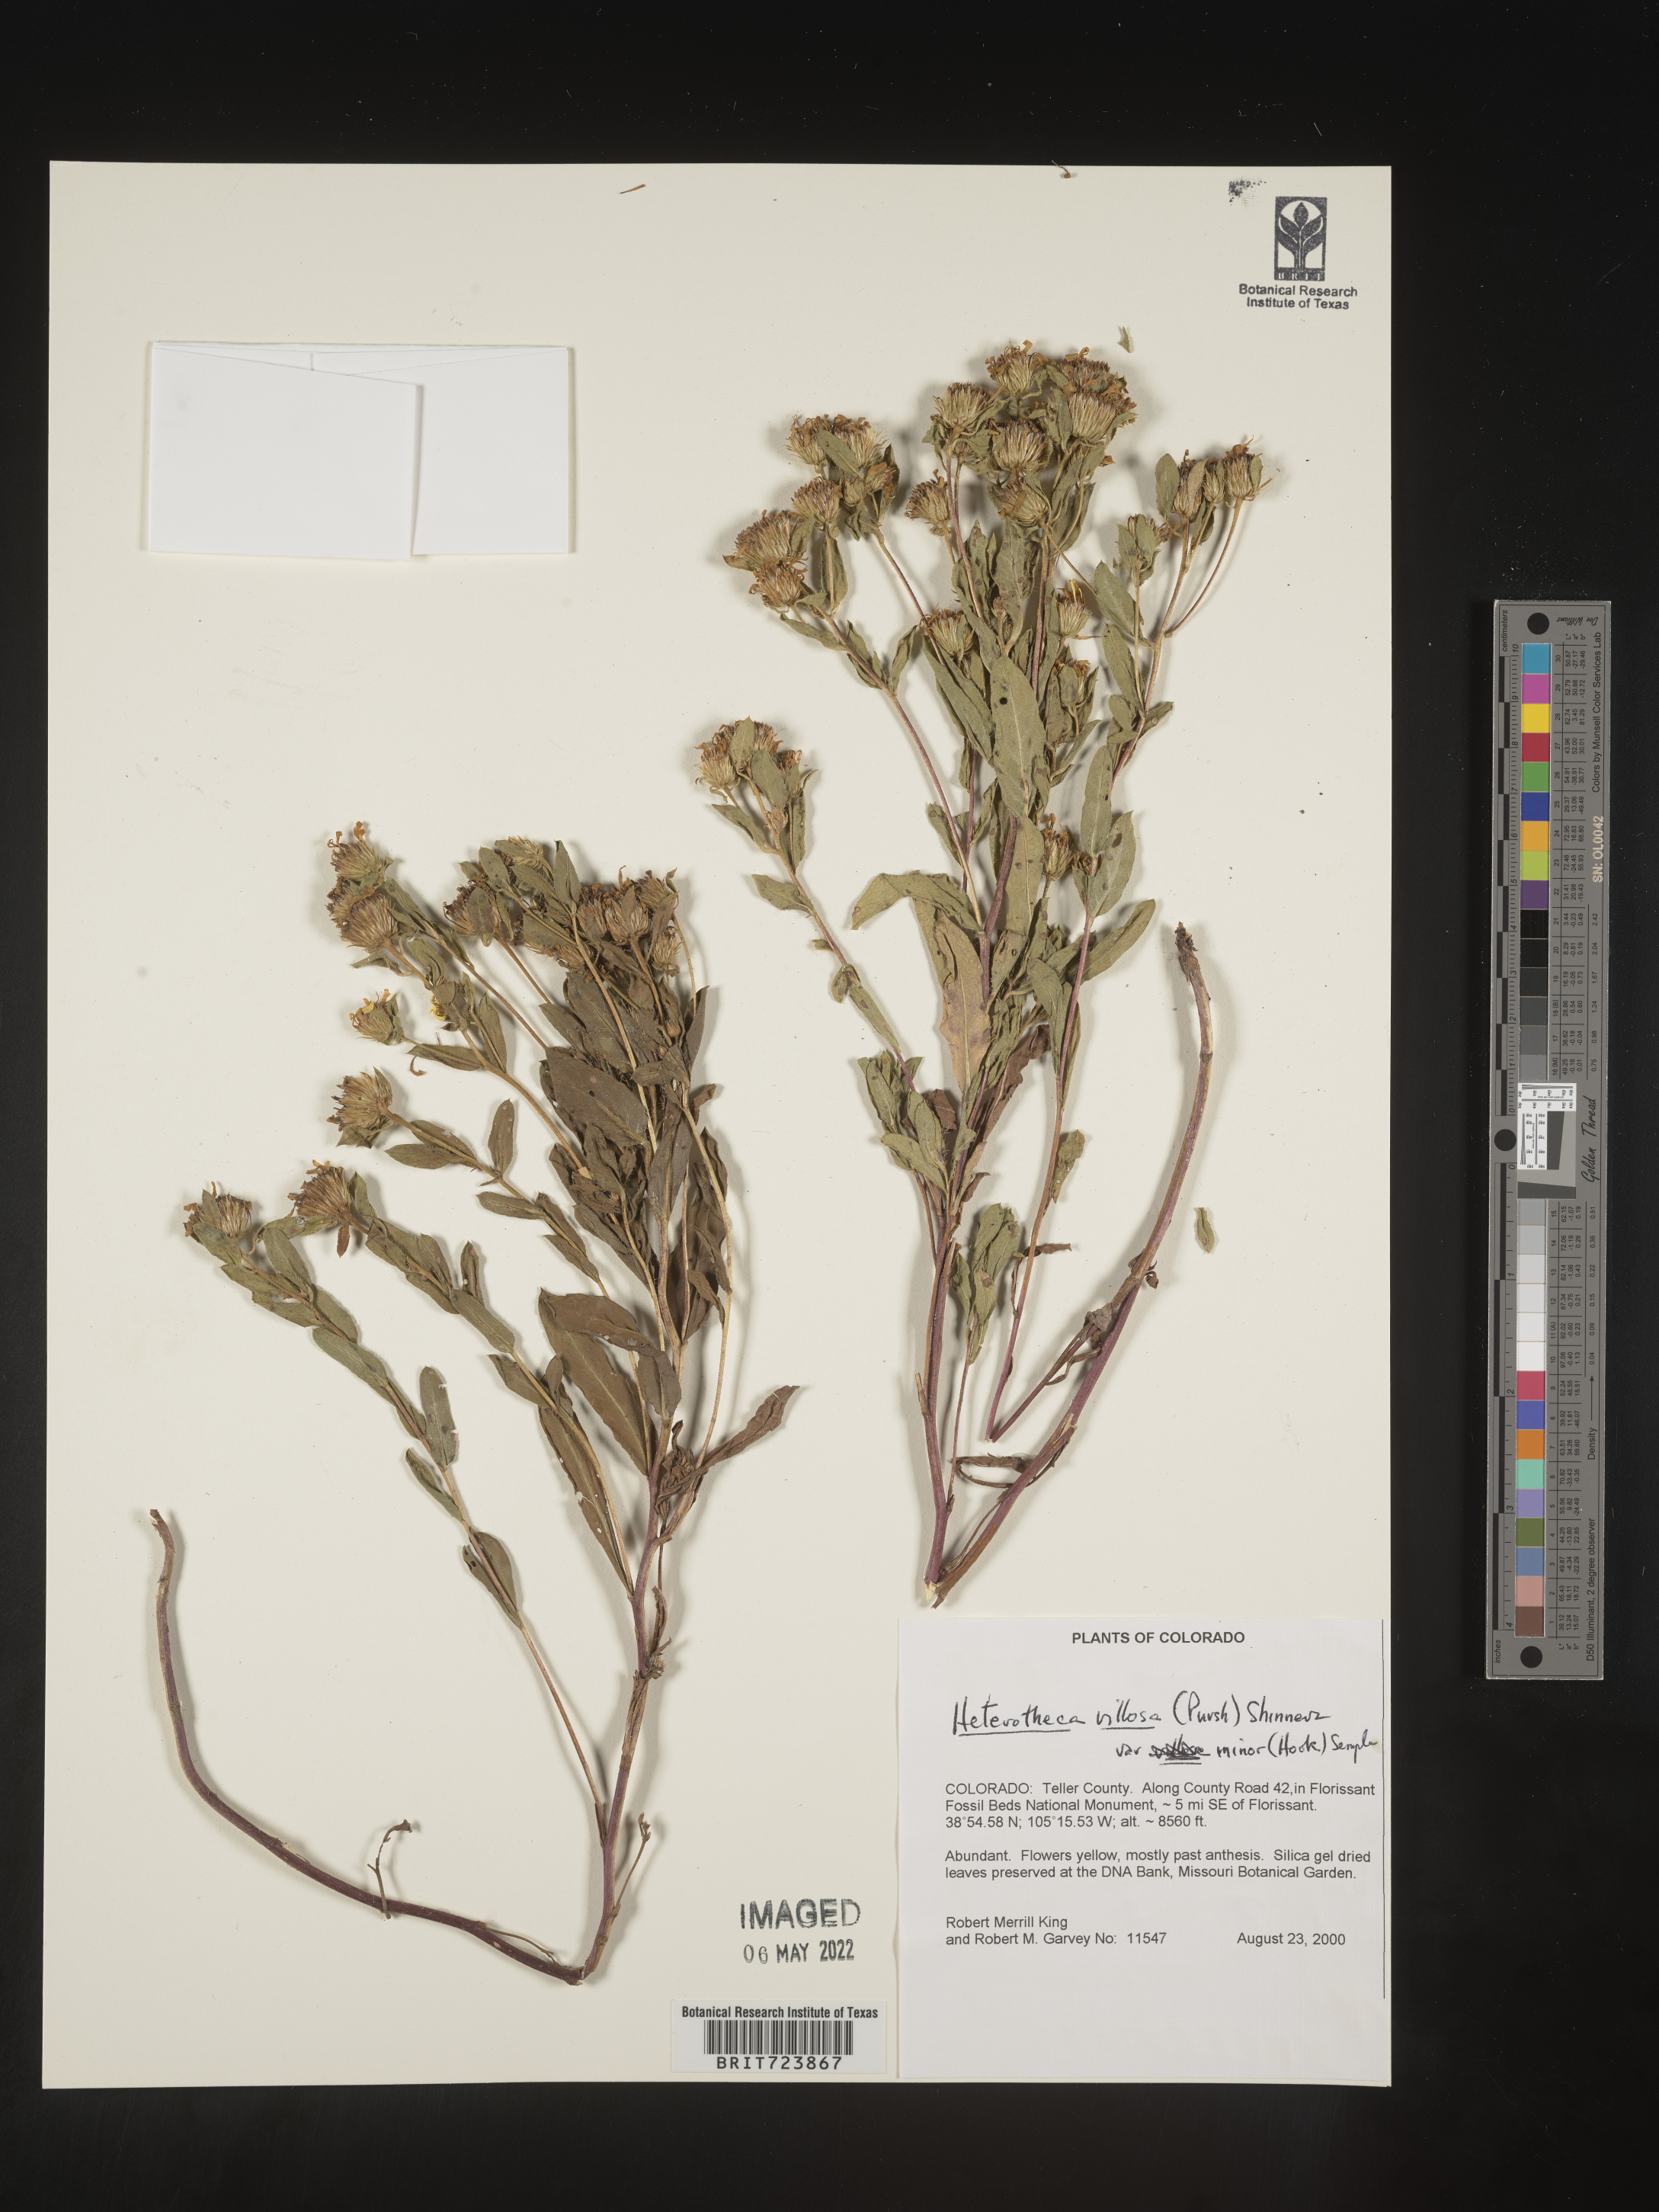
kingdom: Plantae
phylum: Tracheophyta
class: Magnoliopsida
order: Asterales
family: Asteraceae
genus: Heterotheca
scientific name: Heterotheca resinolens
